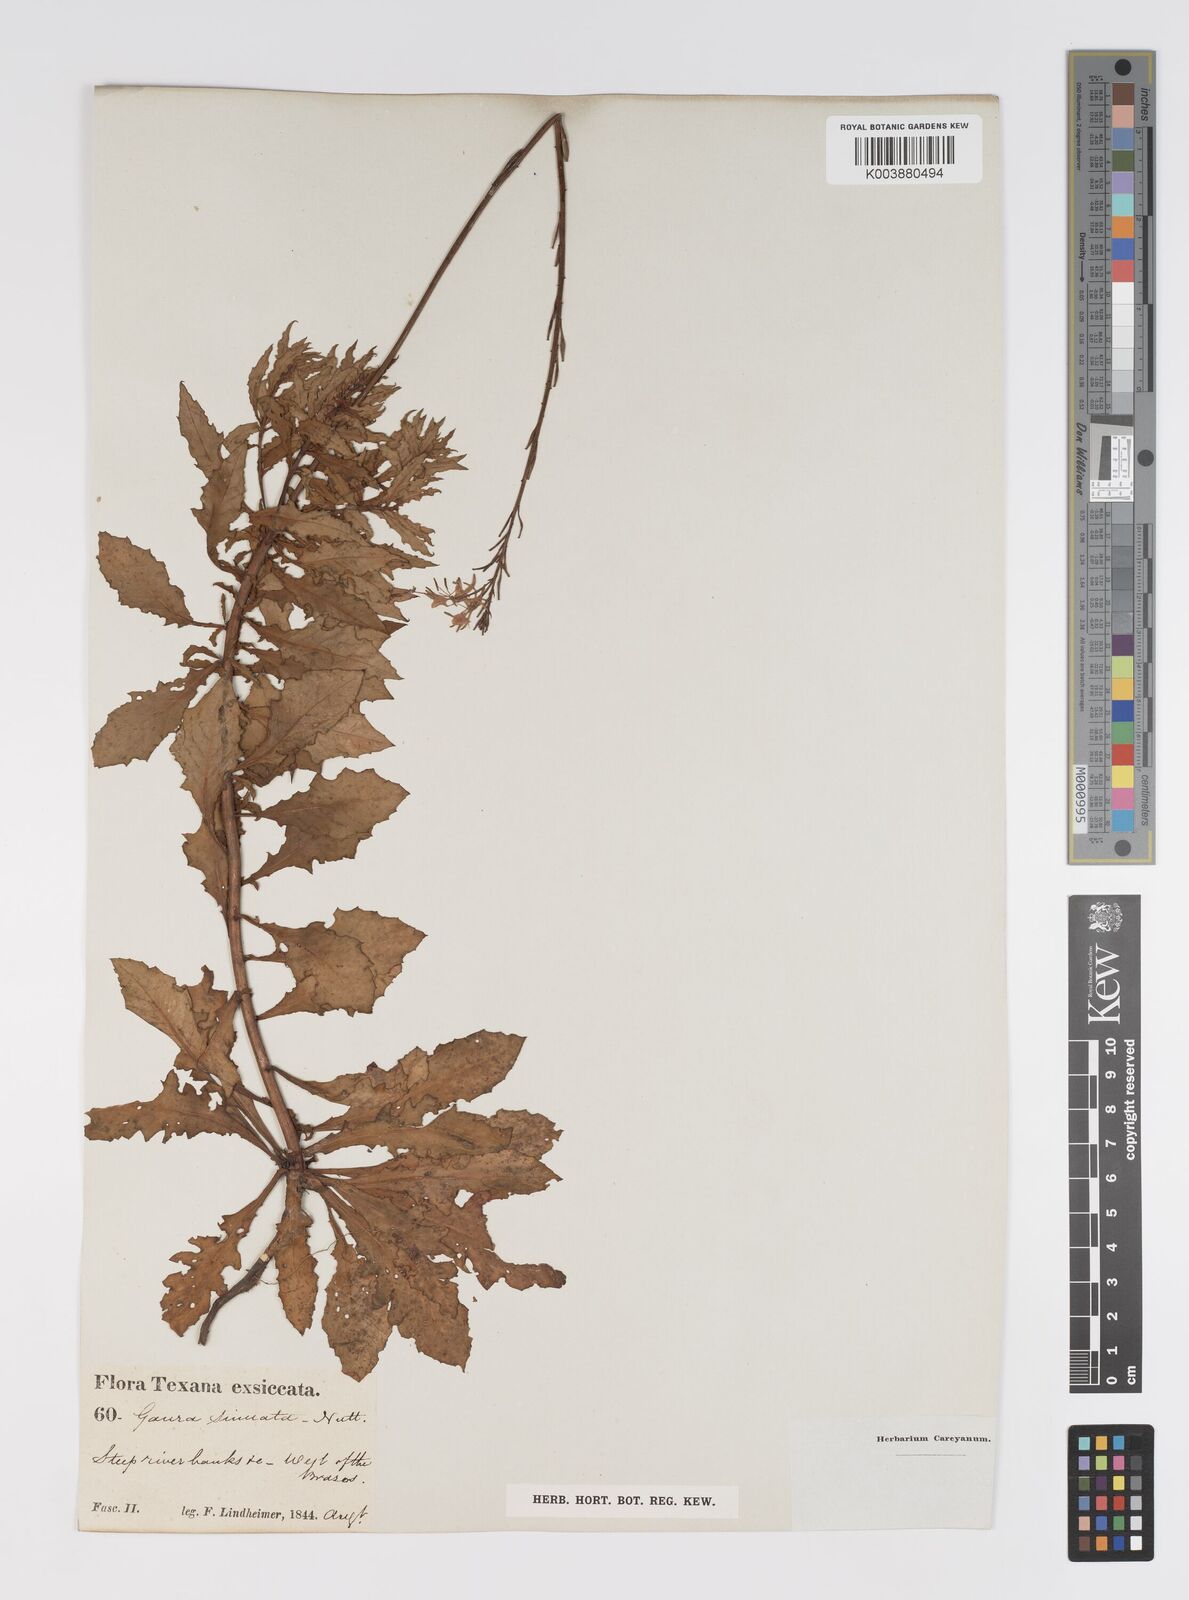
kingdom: Plantae
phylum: Tracheophyta
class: Magnoliopsida
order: Myrtales
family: Onagraceae
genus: Oenothera
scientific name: Oenothera sinuosa
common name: Wavyleaf beeblossom
